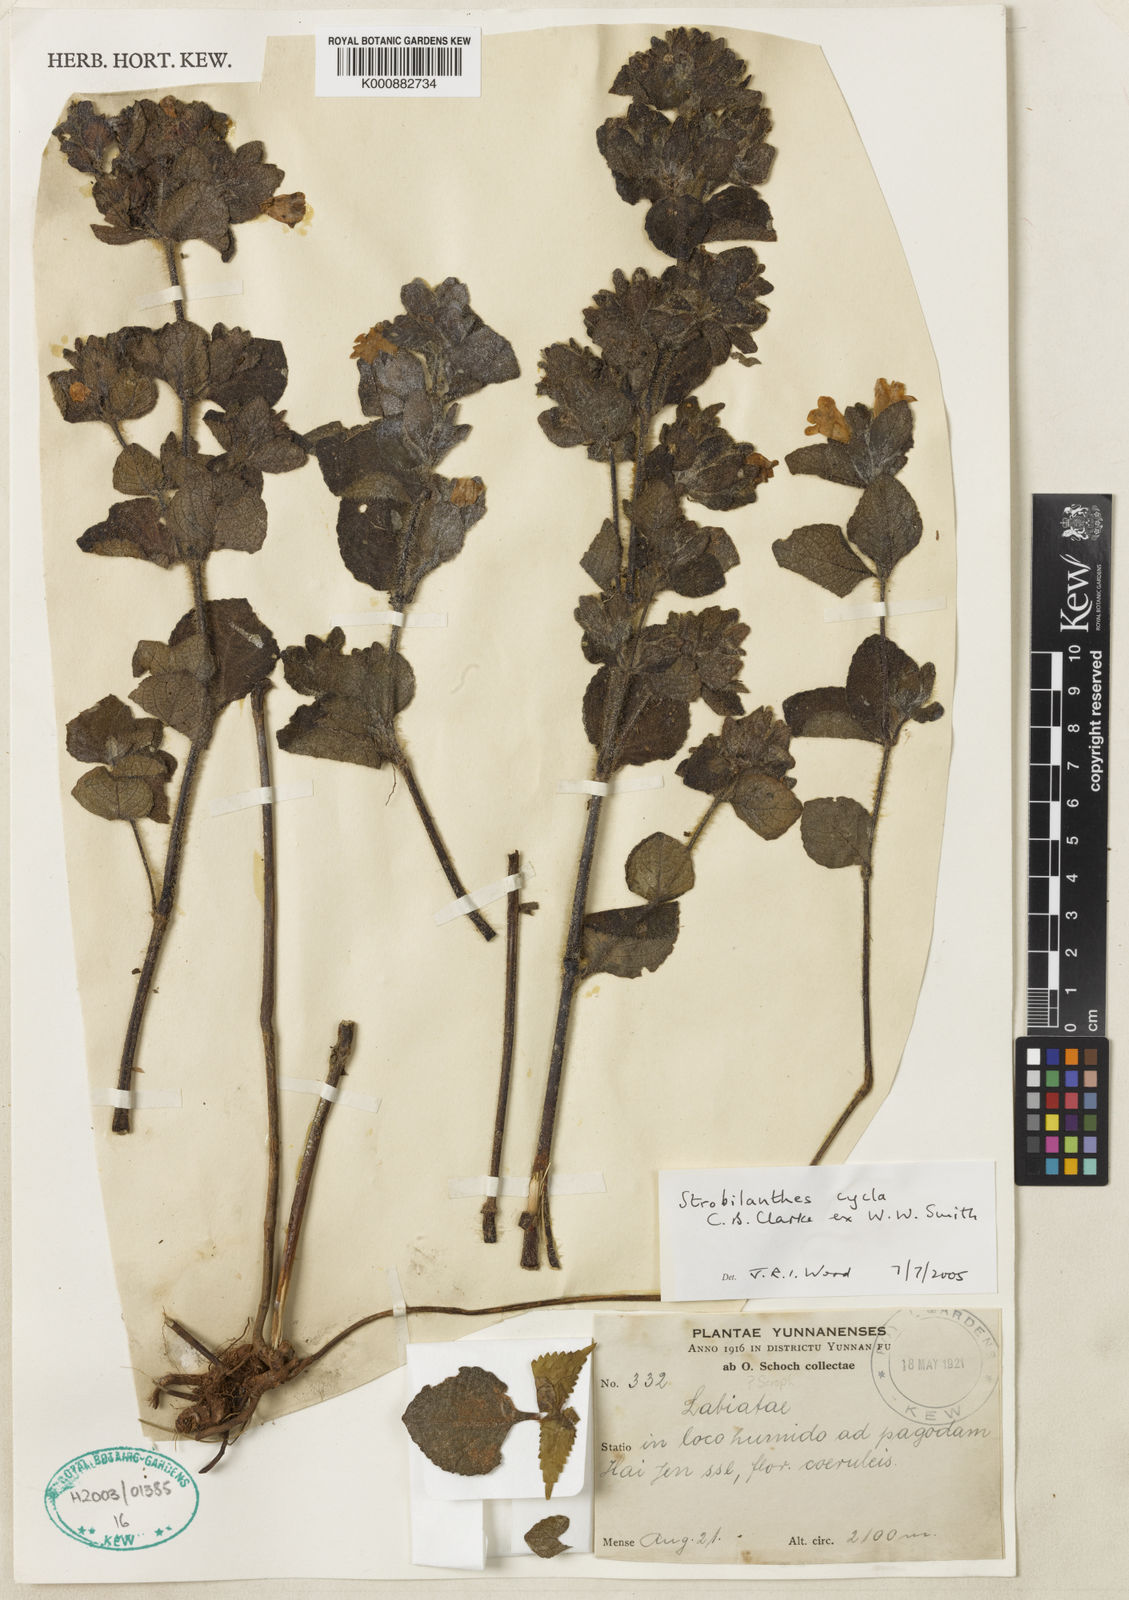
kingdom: Plantae
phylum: Tracheophyta
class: Magnoliopsida
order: Lamiales
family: Acanthaceae
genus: Strobilanthes
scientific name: Strobilanthes
